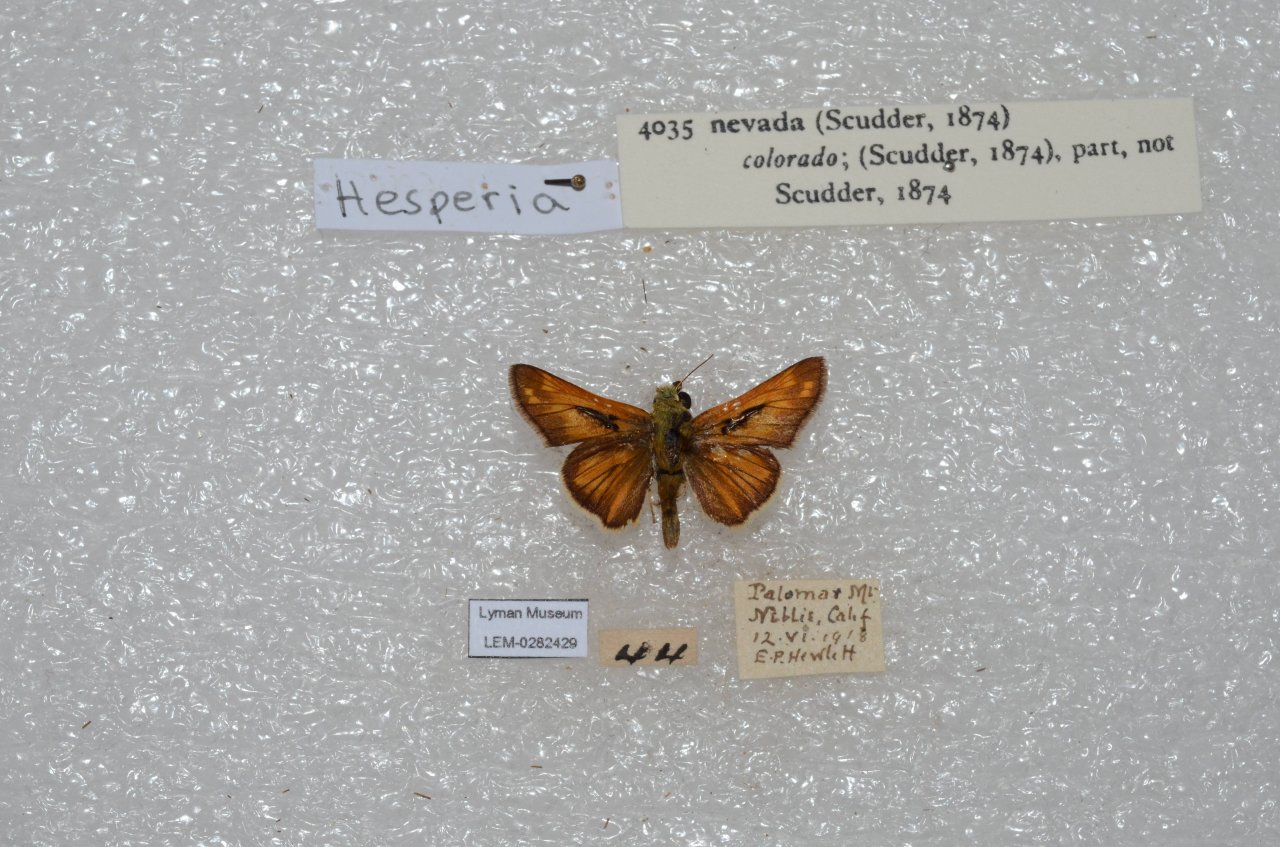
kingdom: Animalia
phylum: Arthropoda
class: Insecta
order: Lepidoptera
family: Hesperiidae
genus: Hesperia
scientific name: Hesperia nevada
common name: Nevada Skipper
